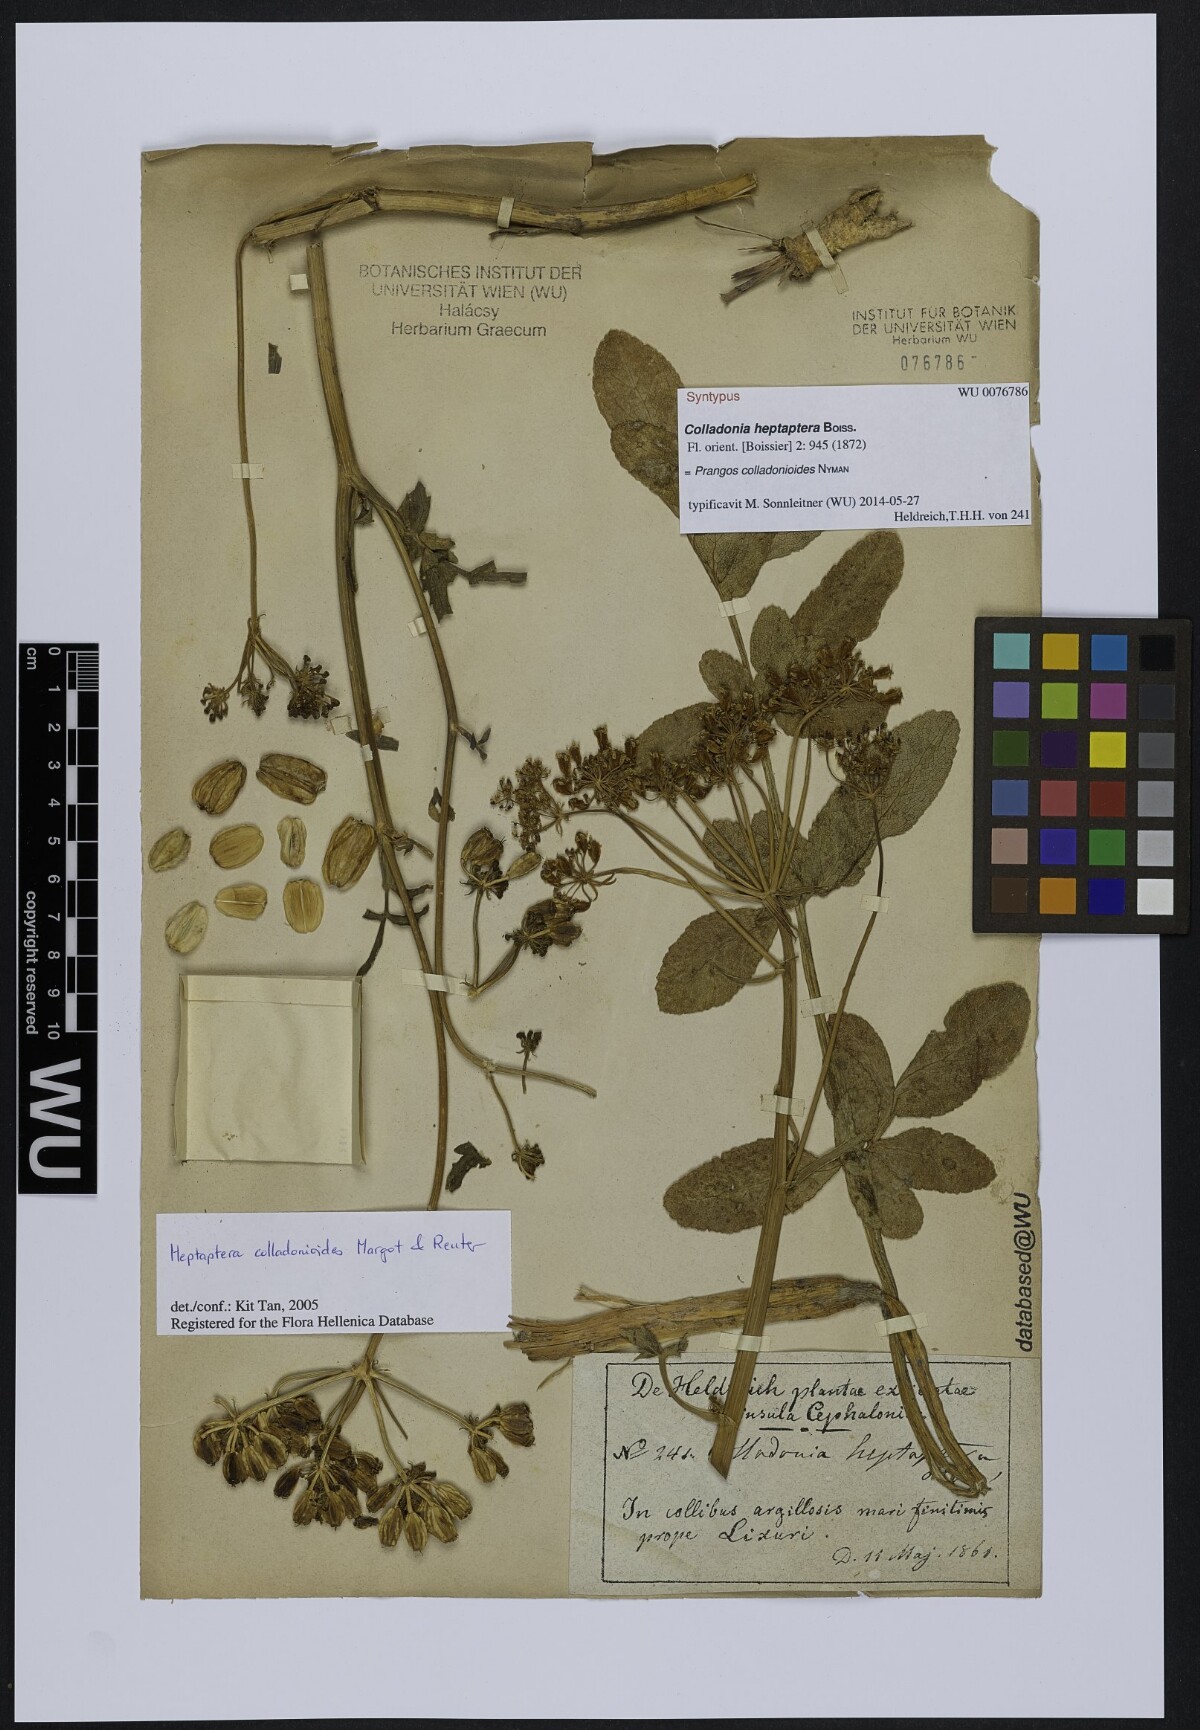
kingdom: Plantae
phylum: Tracheophyta
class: Magnoliopsida
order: Apiales
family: Apiaceae
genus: Heptaptera
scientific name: Heptaptera colladonioides
